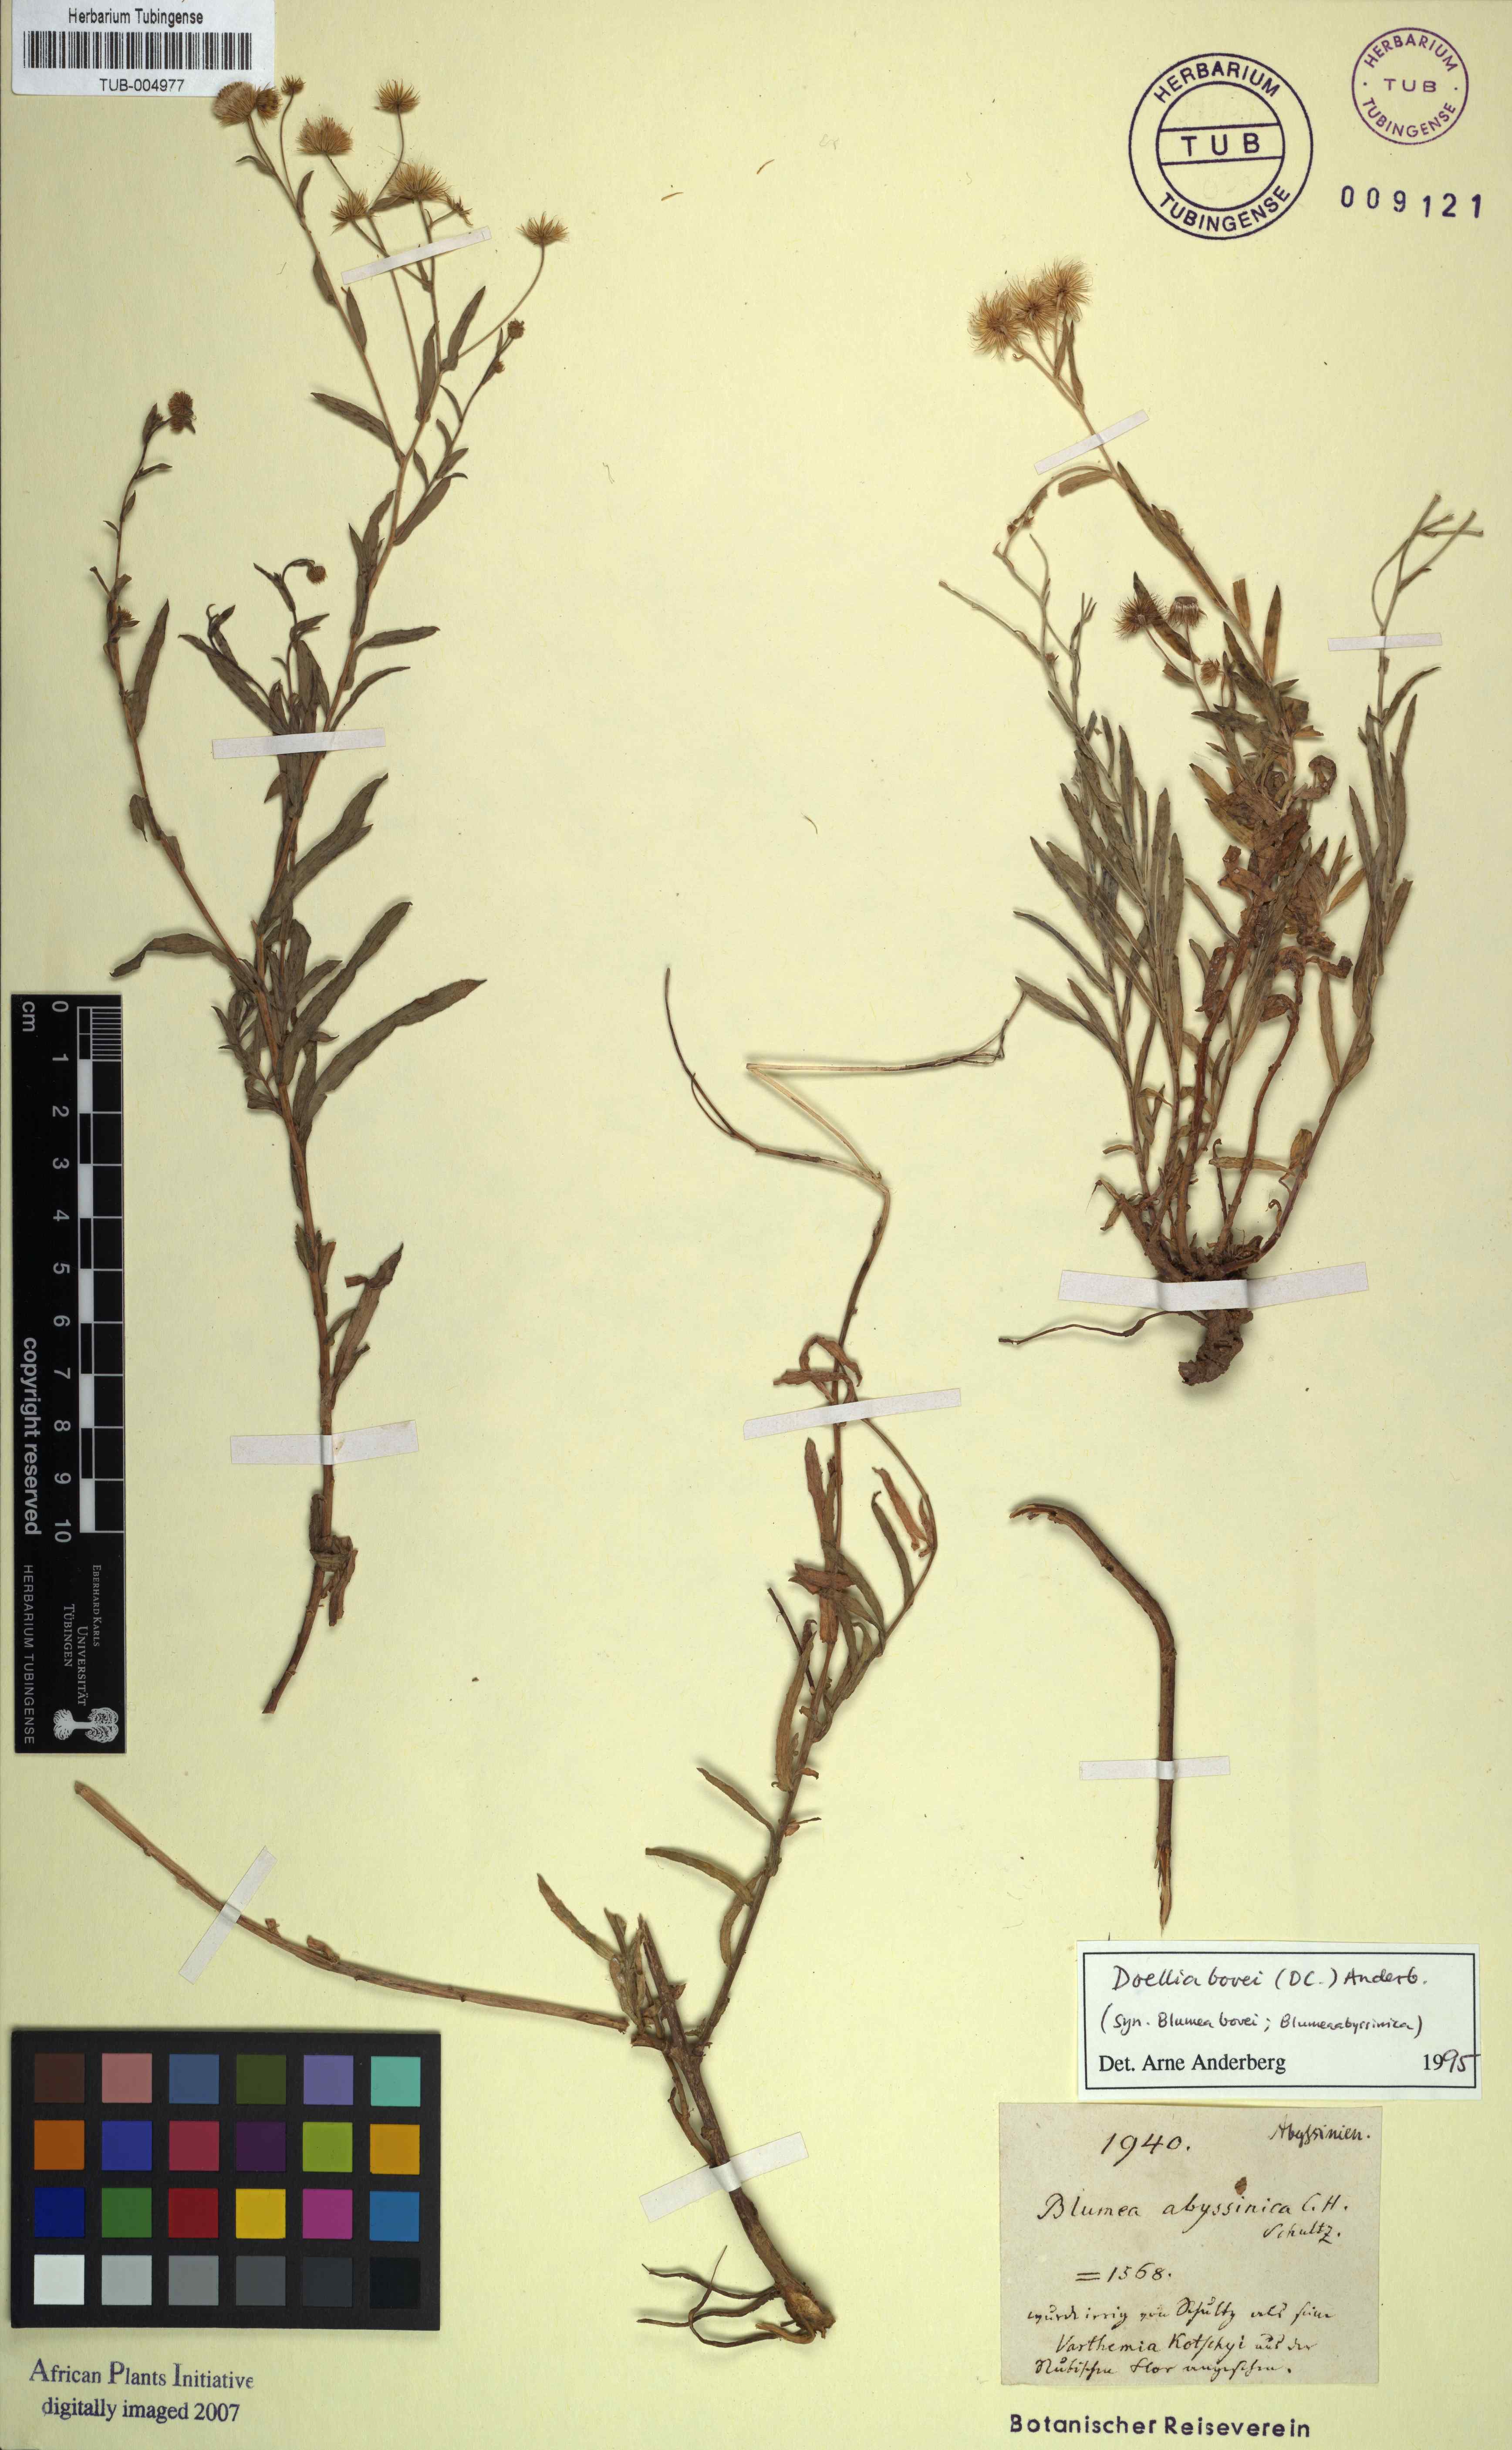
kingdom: Plantae
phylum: Tracheophyta
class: Magnoliopsida
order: Asterales
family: Asteraceae
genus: Doellia
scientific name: Doellia bovei
